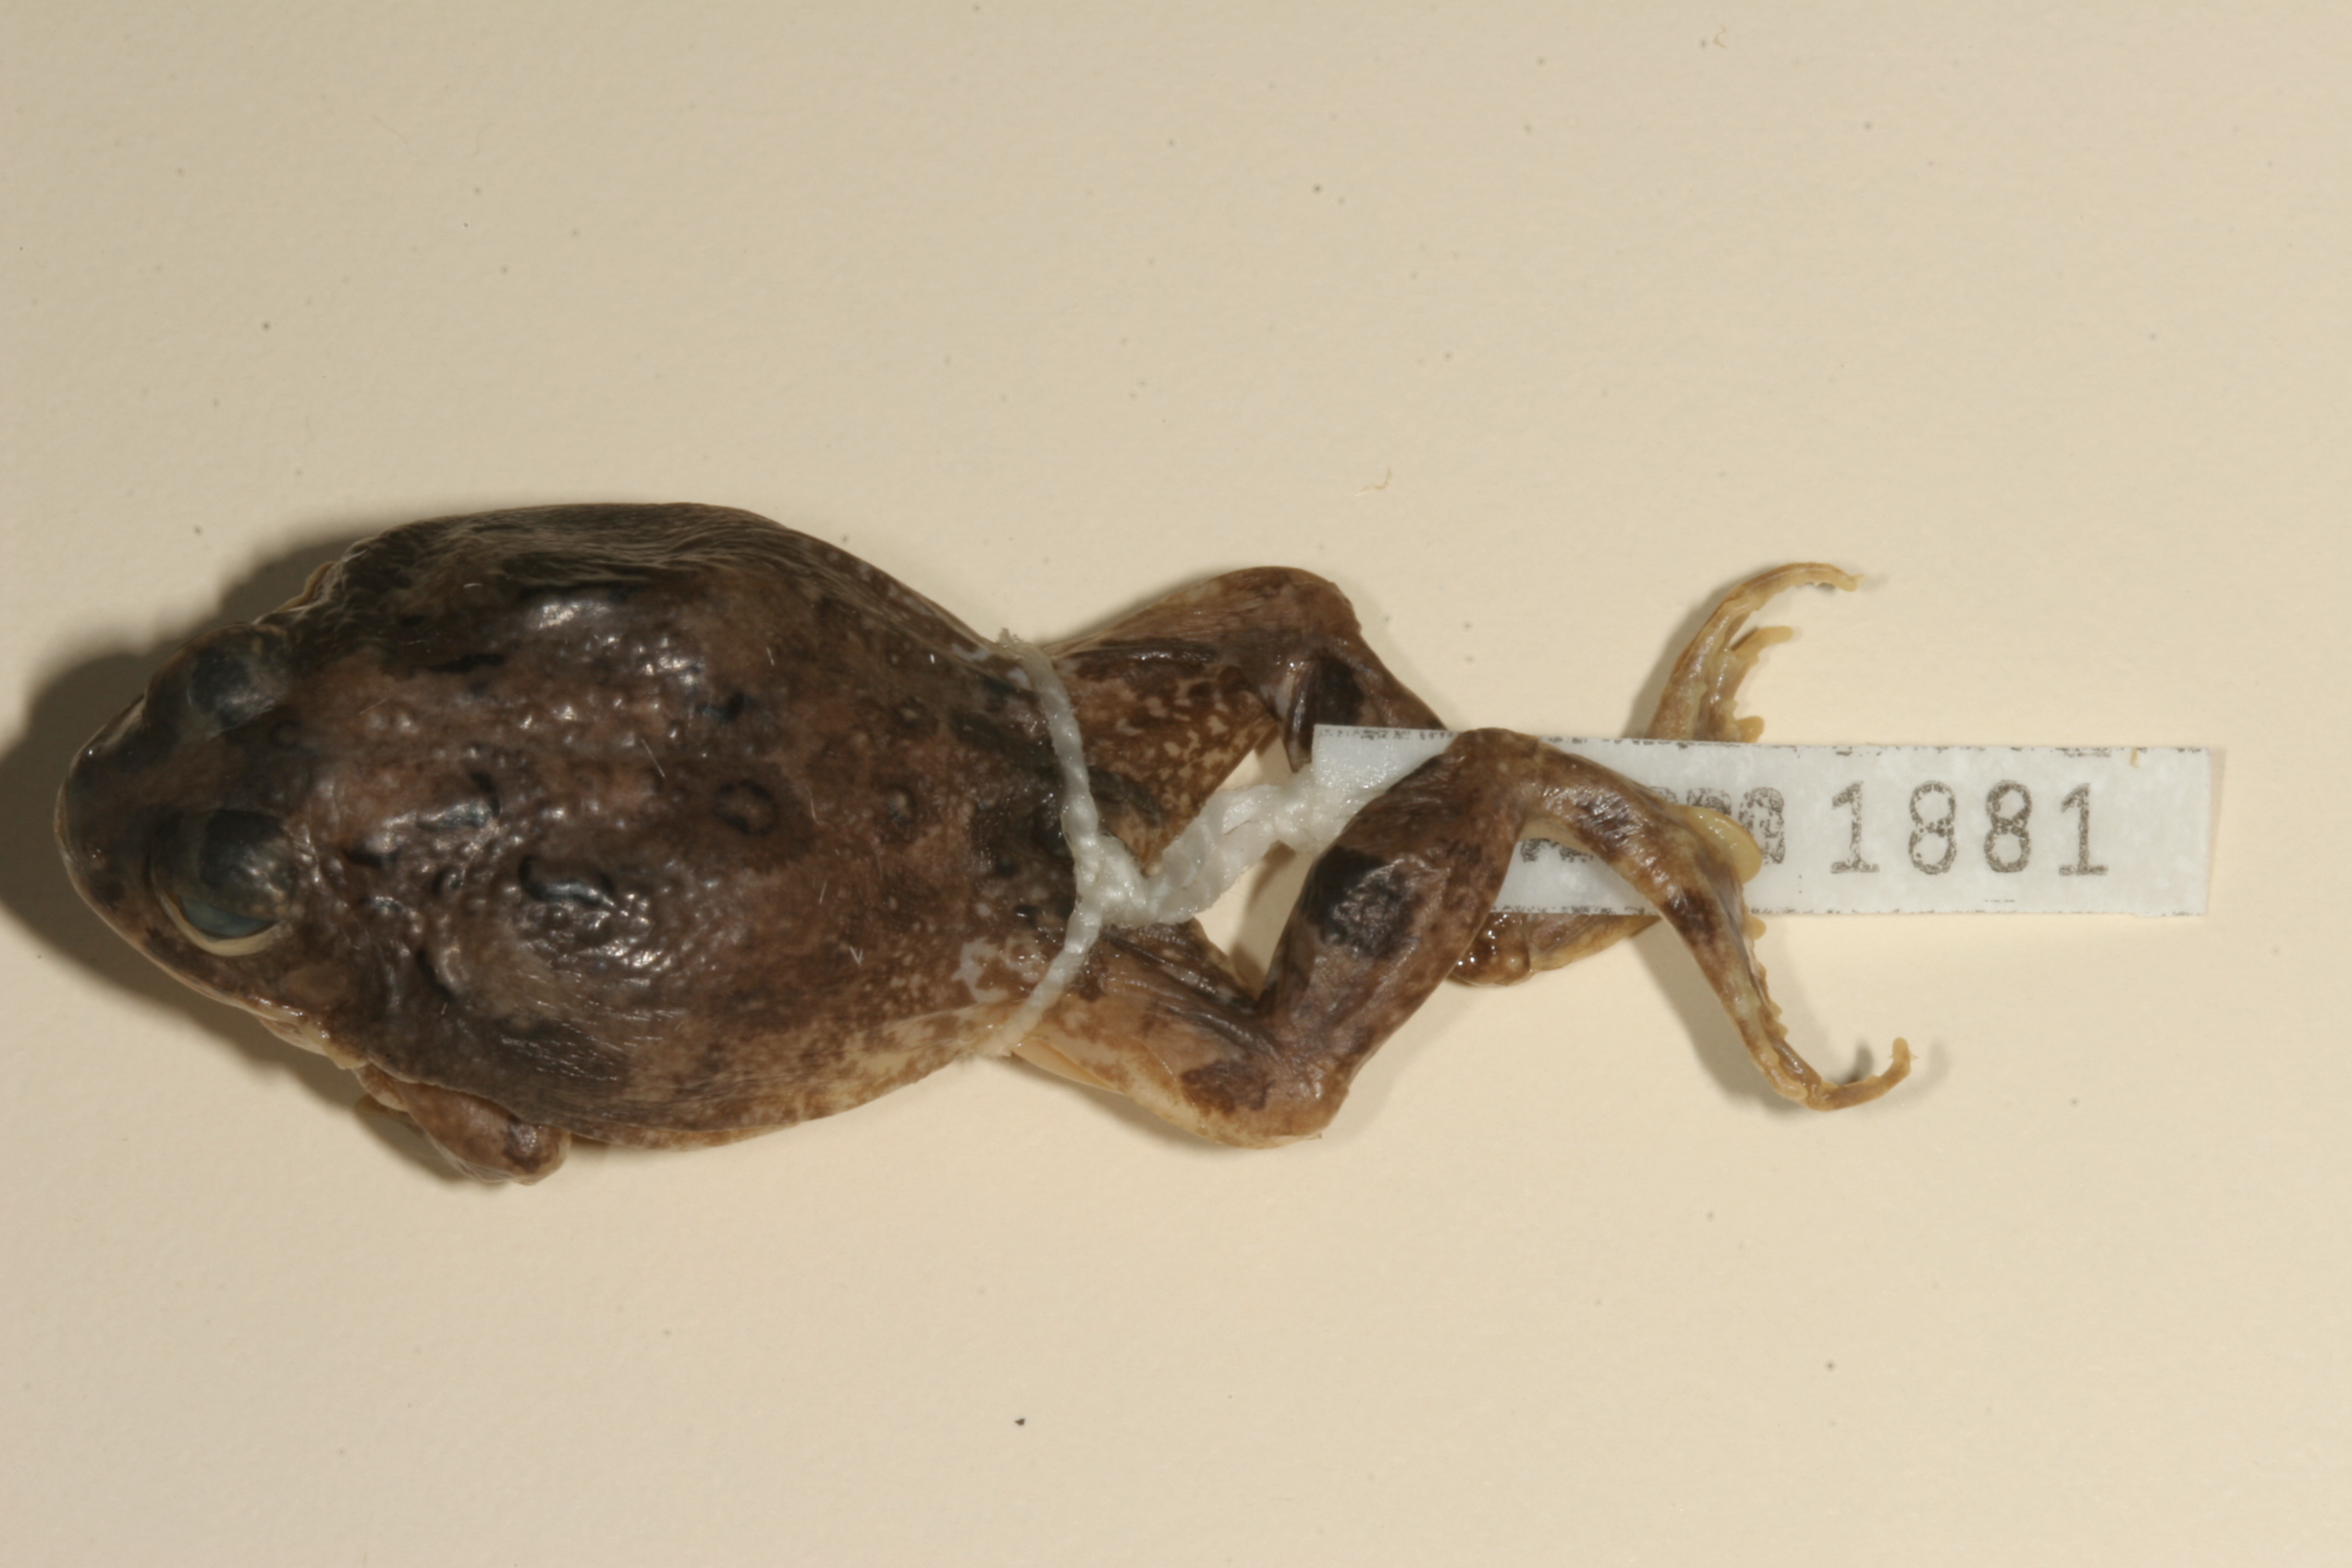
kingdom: Animalia
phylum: Chordata
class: Amphibia
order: Anura
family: Pyxicephalidae
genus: Tomopterna
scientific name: Tomopterna cryptotis
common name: Catequero bullfrog
